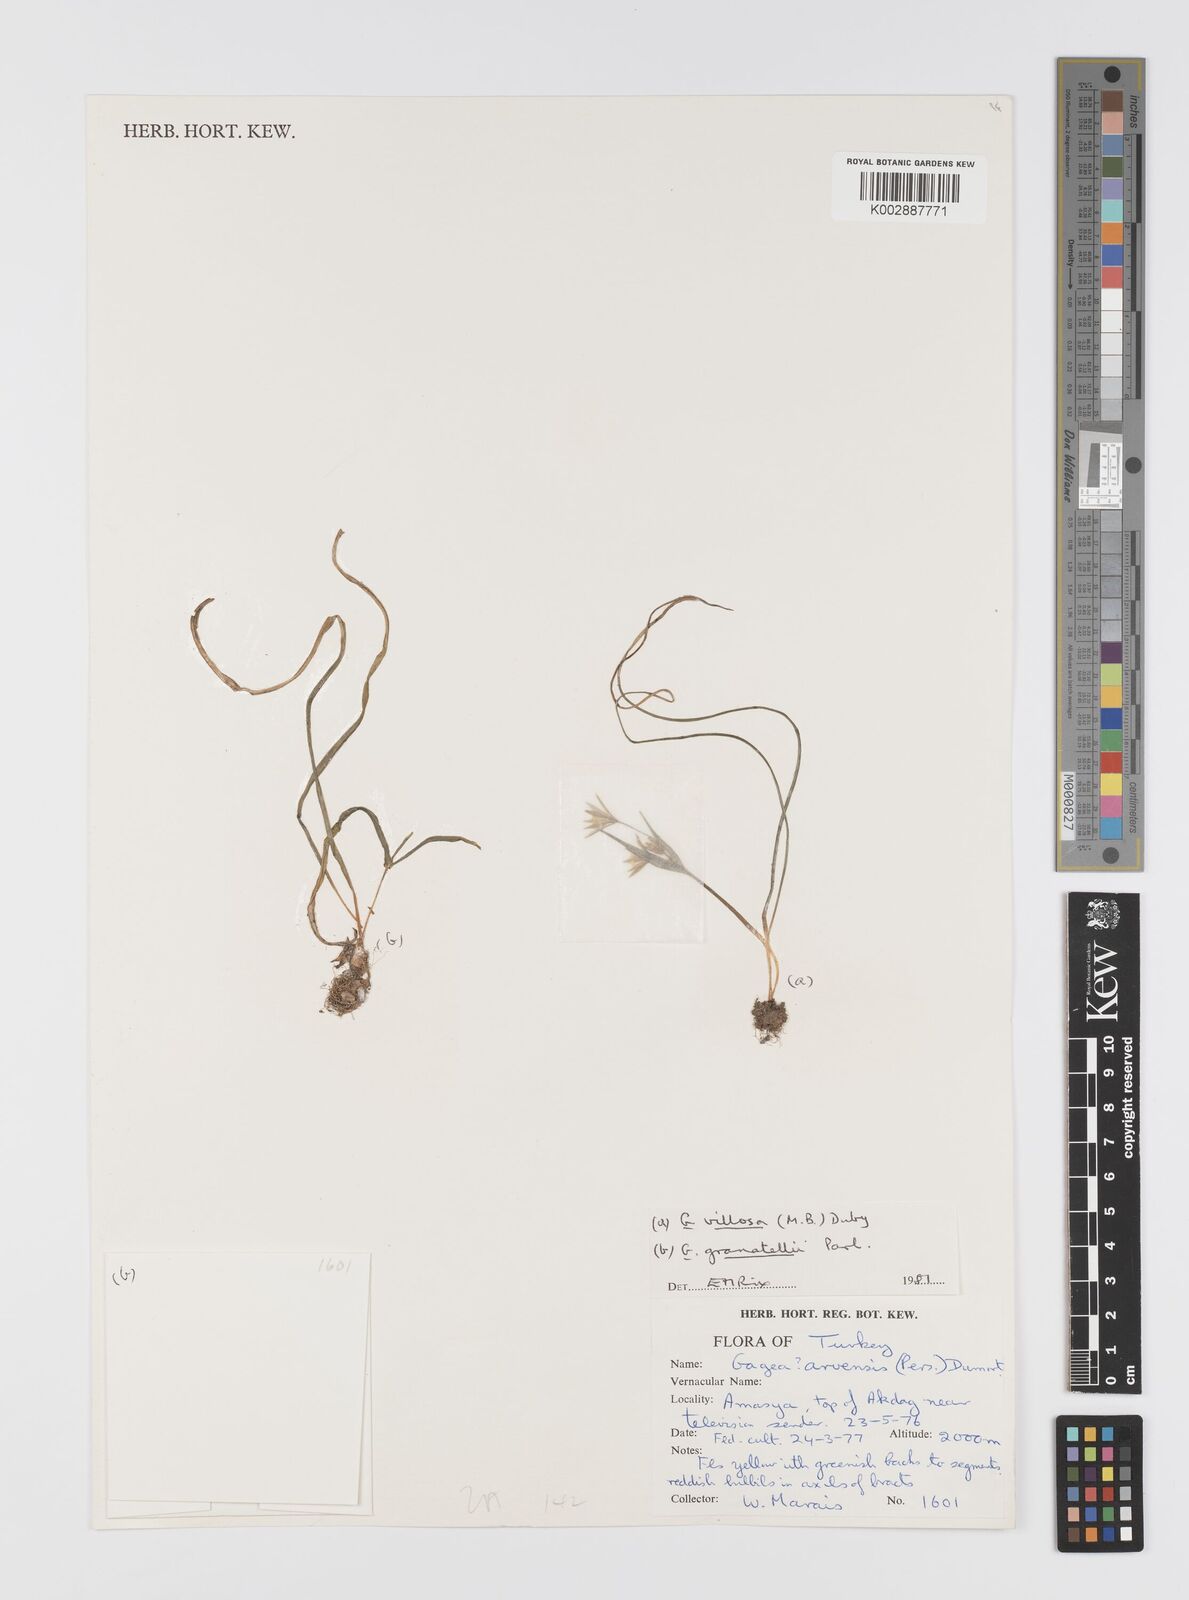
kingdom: Plantae
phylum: Tracheophyta
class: Liliopsida
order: Liliales
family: Liliaceae
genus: Gagea
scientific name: Gagea villosa
